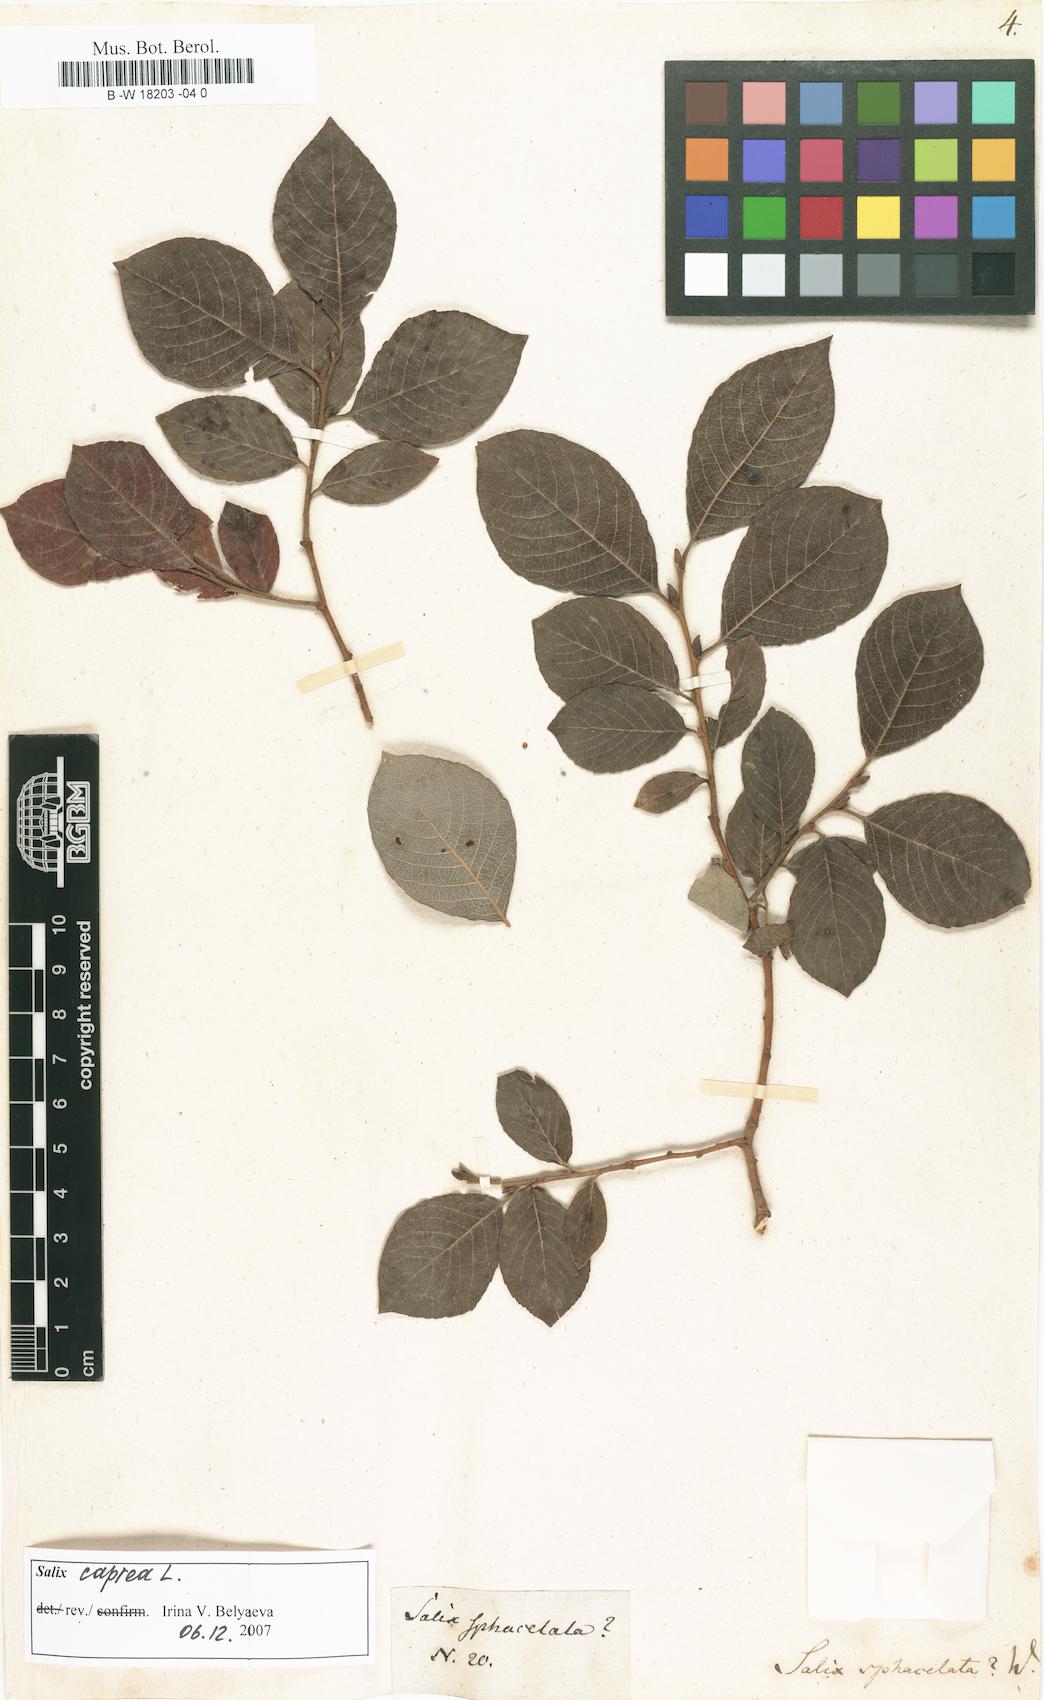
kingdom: Plantae
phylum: Tracheophyta
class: Magnoliopsida
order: Malpighiales
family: Salicaceae
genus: Salix
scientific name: Salix
